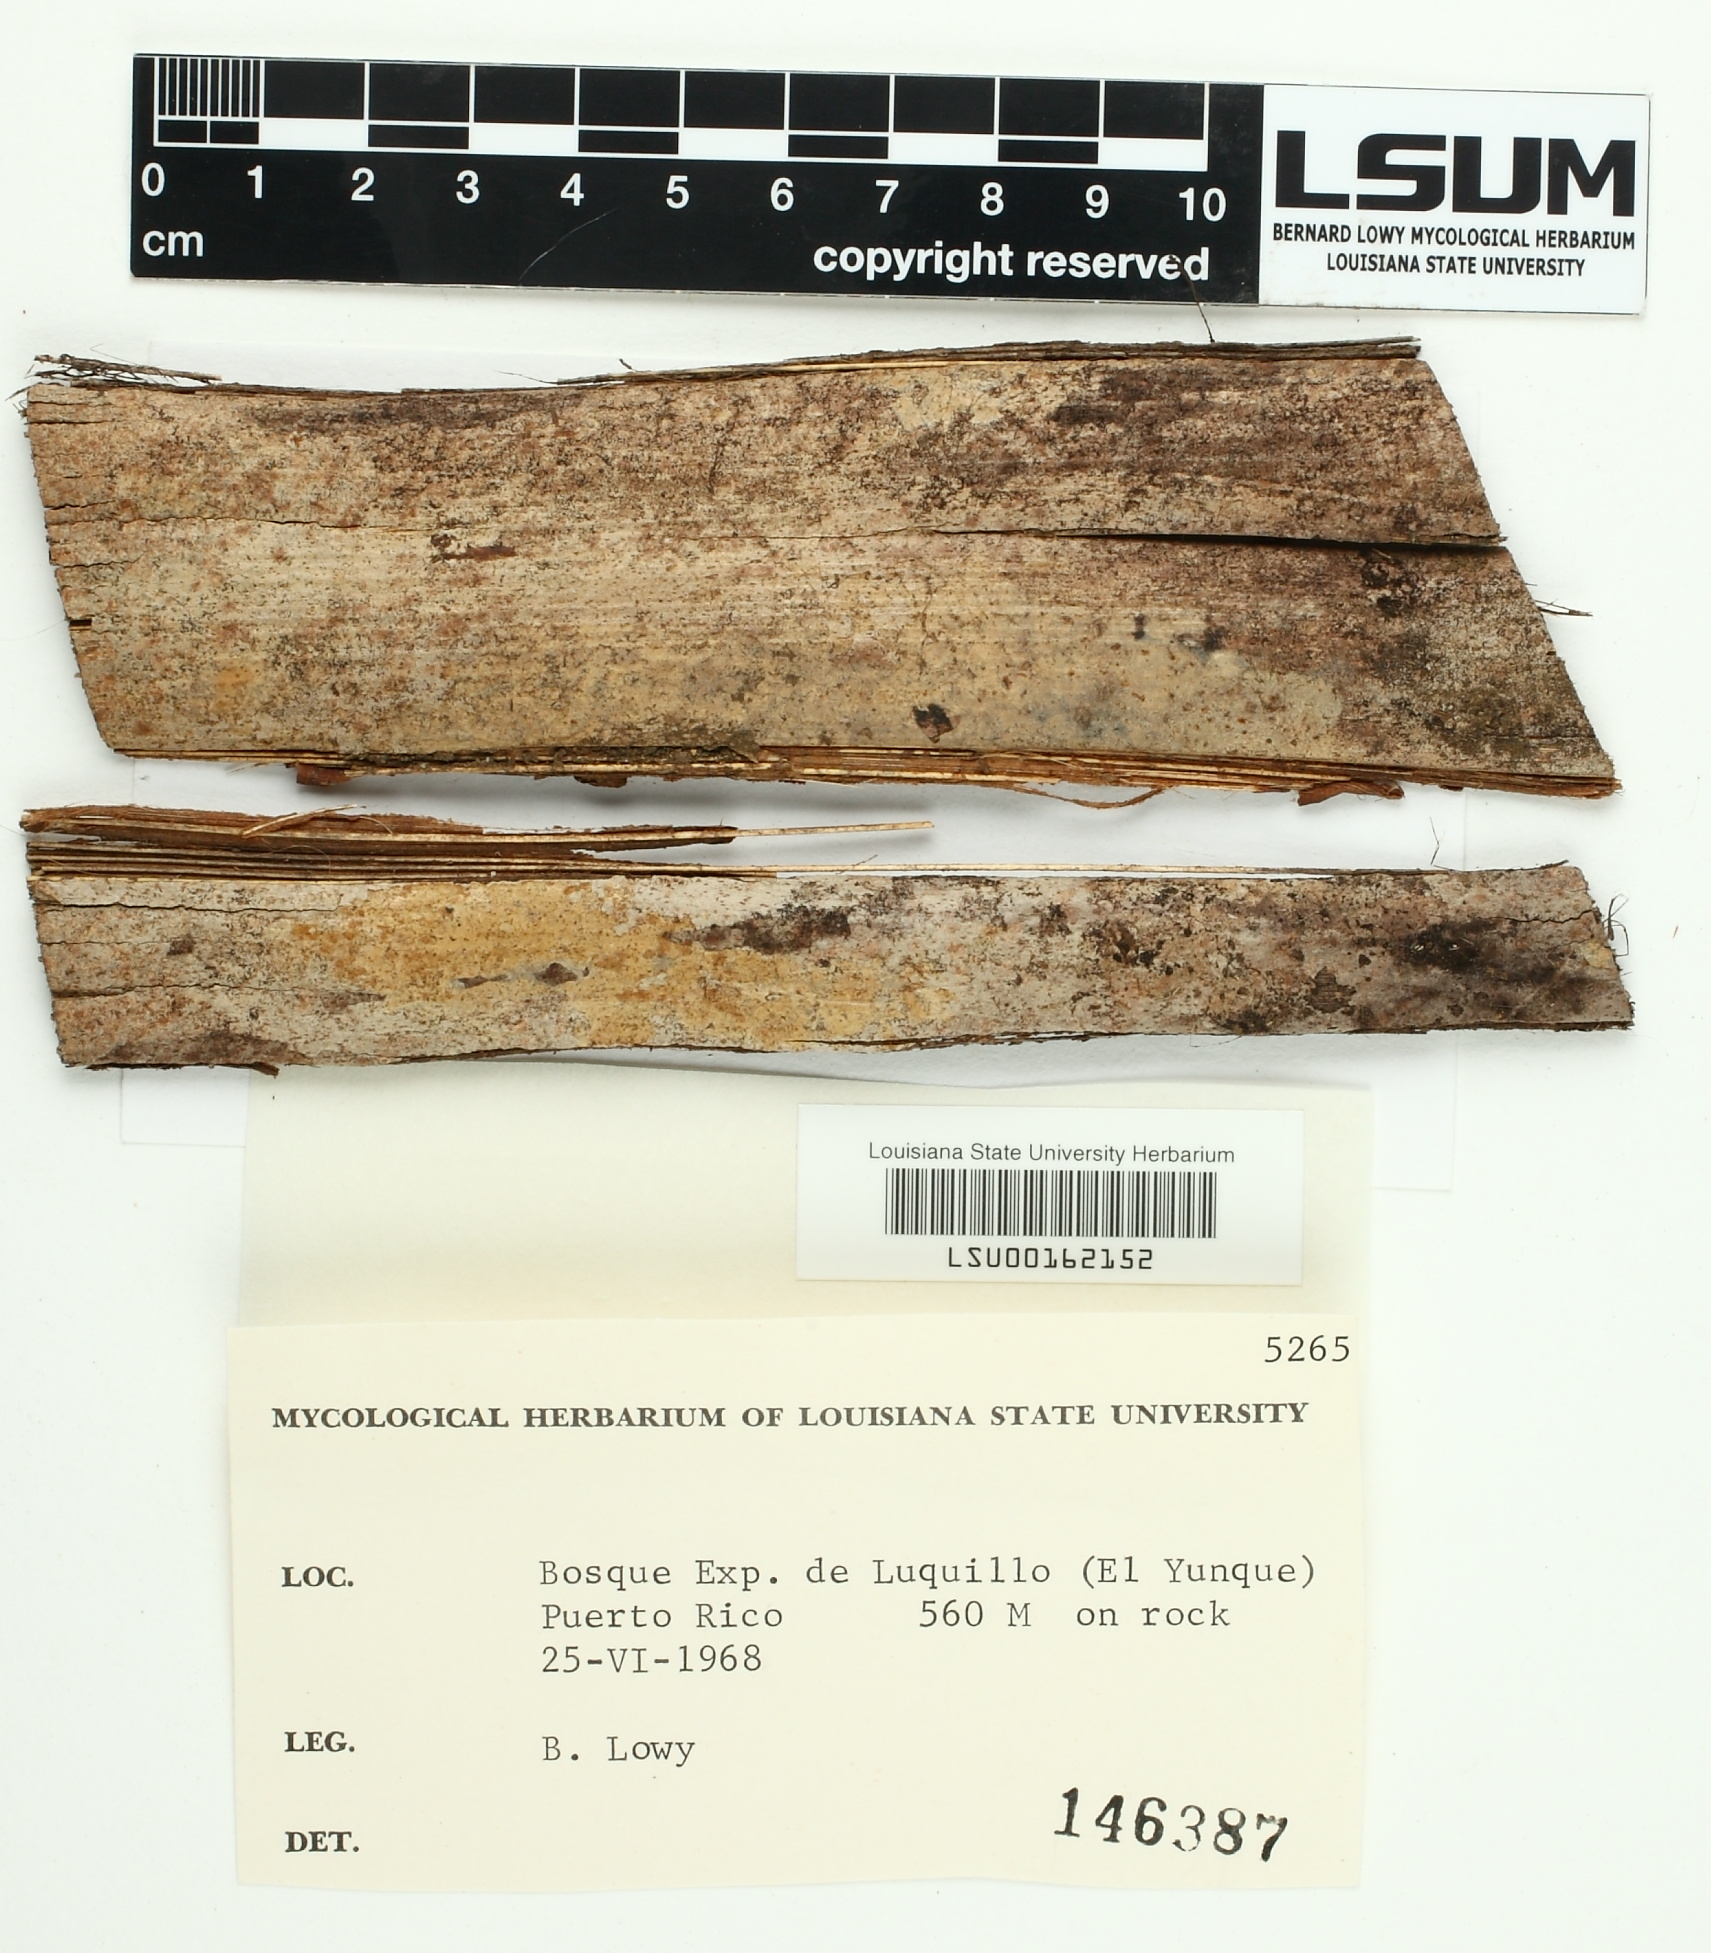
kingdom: Fungi
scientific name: Fungi
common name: Fungi
